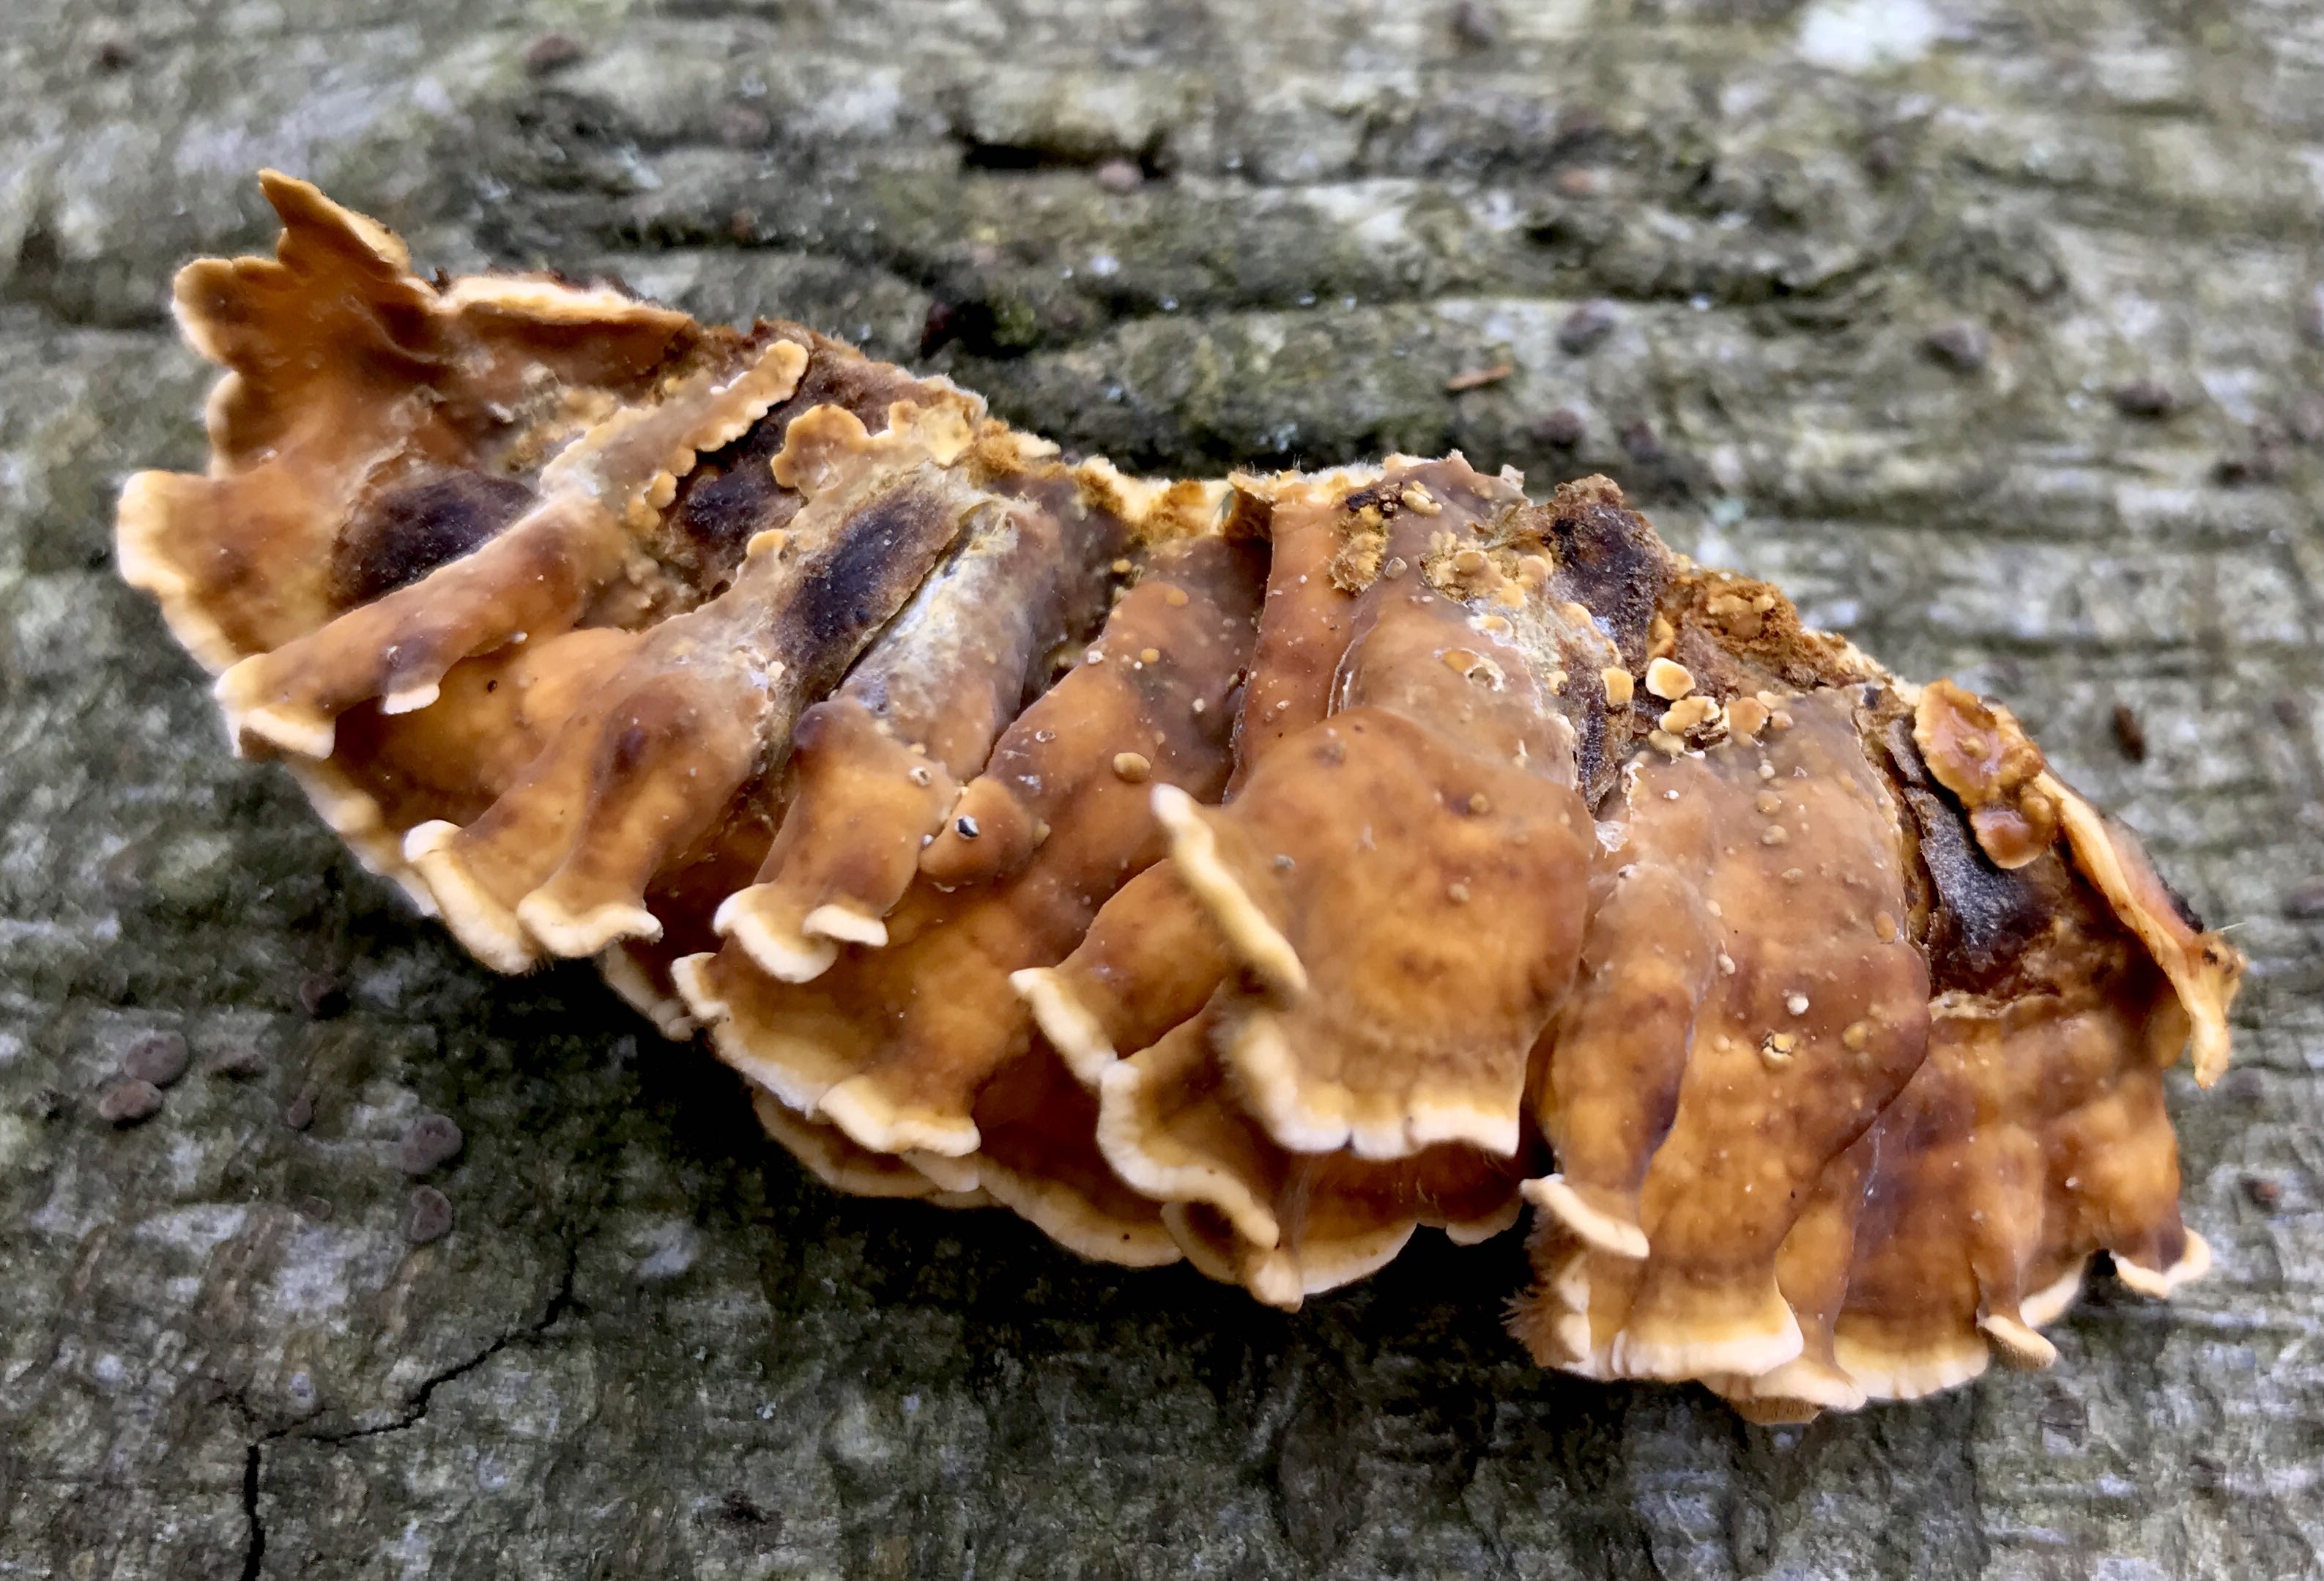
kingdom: Fungi
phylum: Basidiomycota
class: Agaricomycetes
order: Russulales
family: Stereaceae
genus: Stereum
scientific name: Stereum hirsutum
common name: håret lædersvamp
